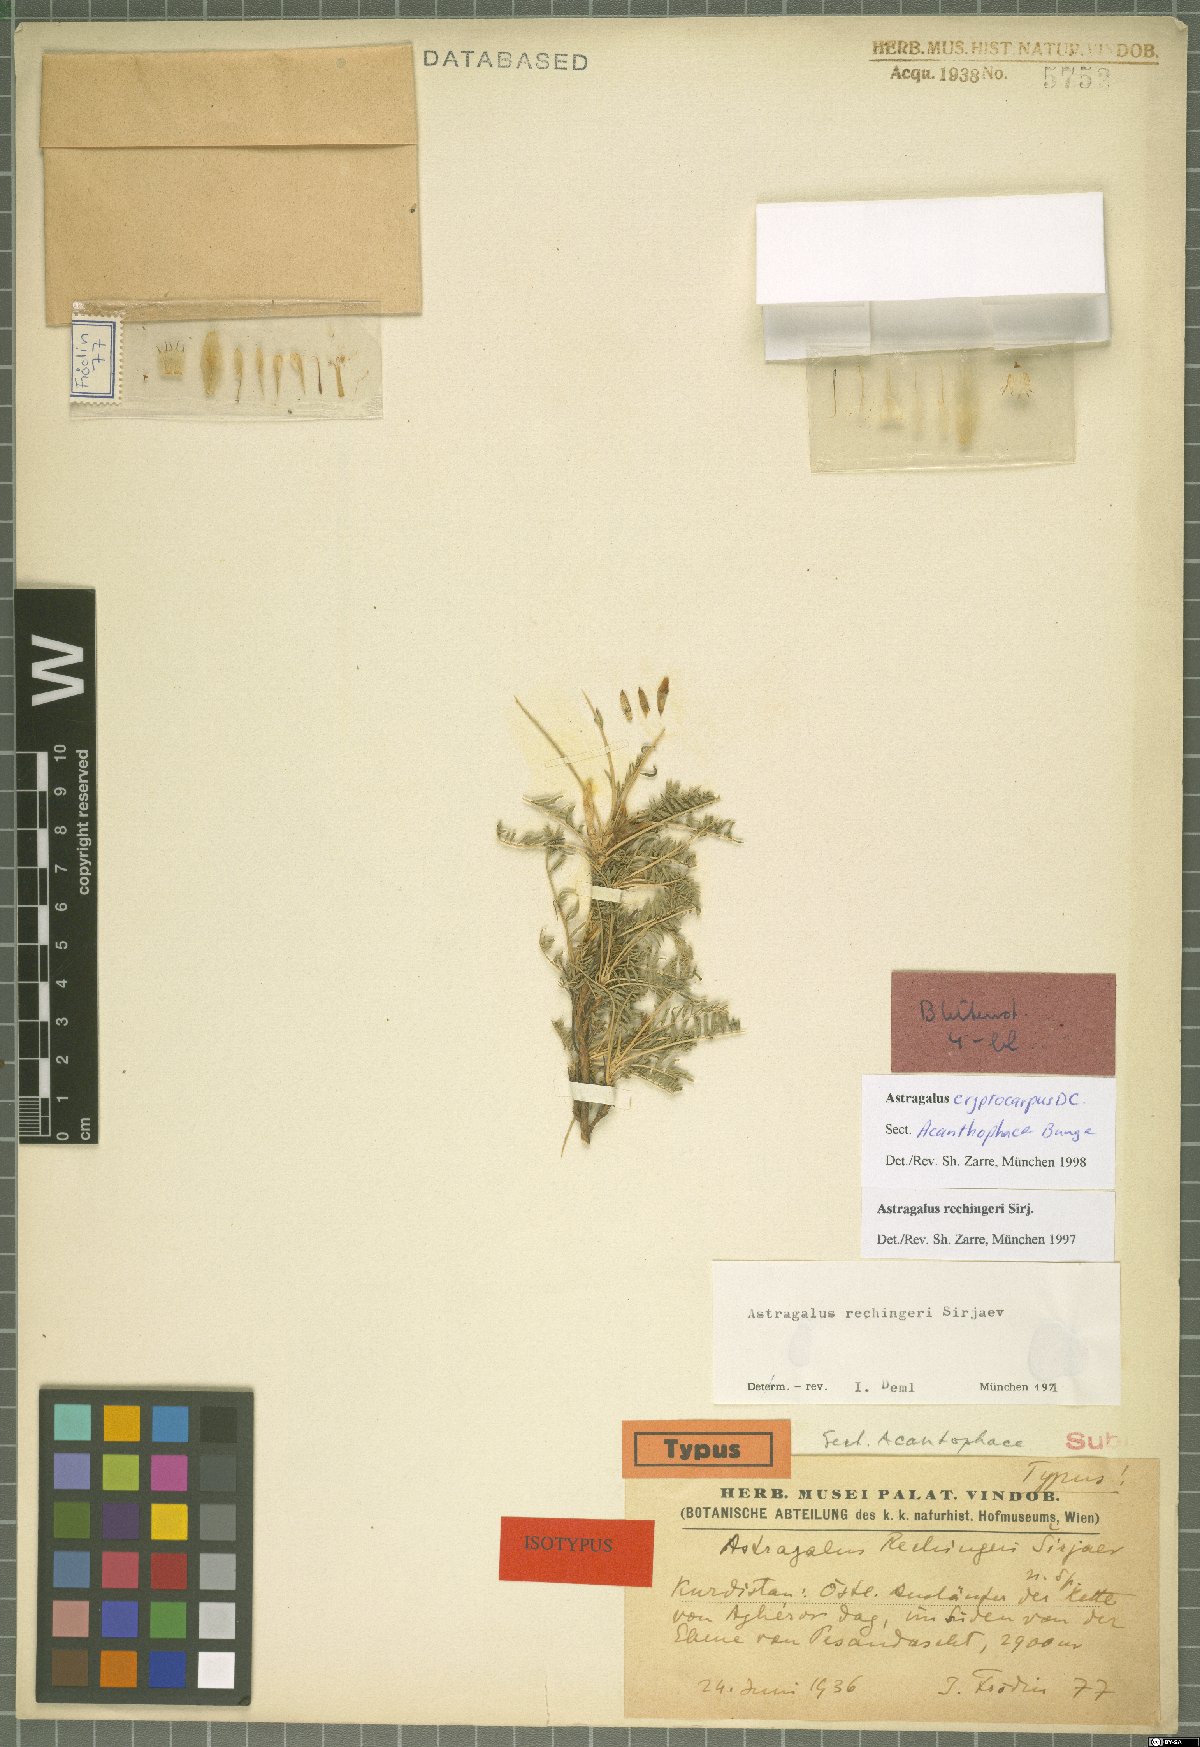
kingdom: Plantae
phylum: Tracheophyta
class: Magnoliopsida
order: Fabales
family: Fabaceae
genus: Astragalus
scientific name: Astragalus cryptocarpos
